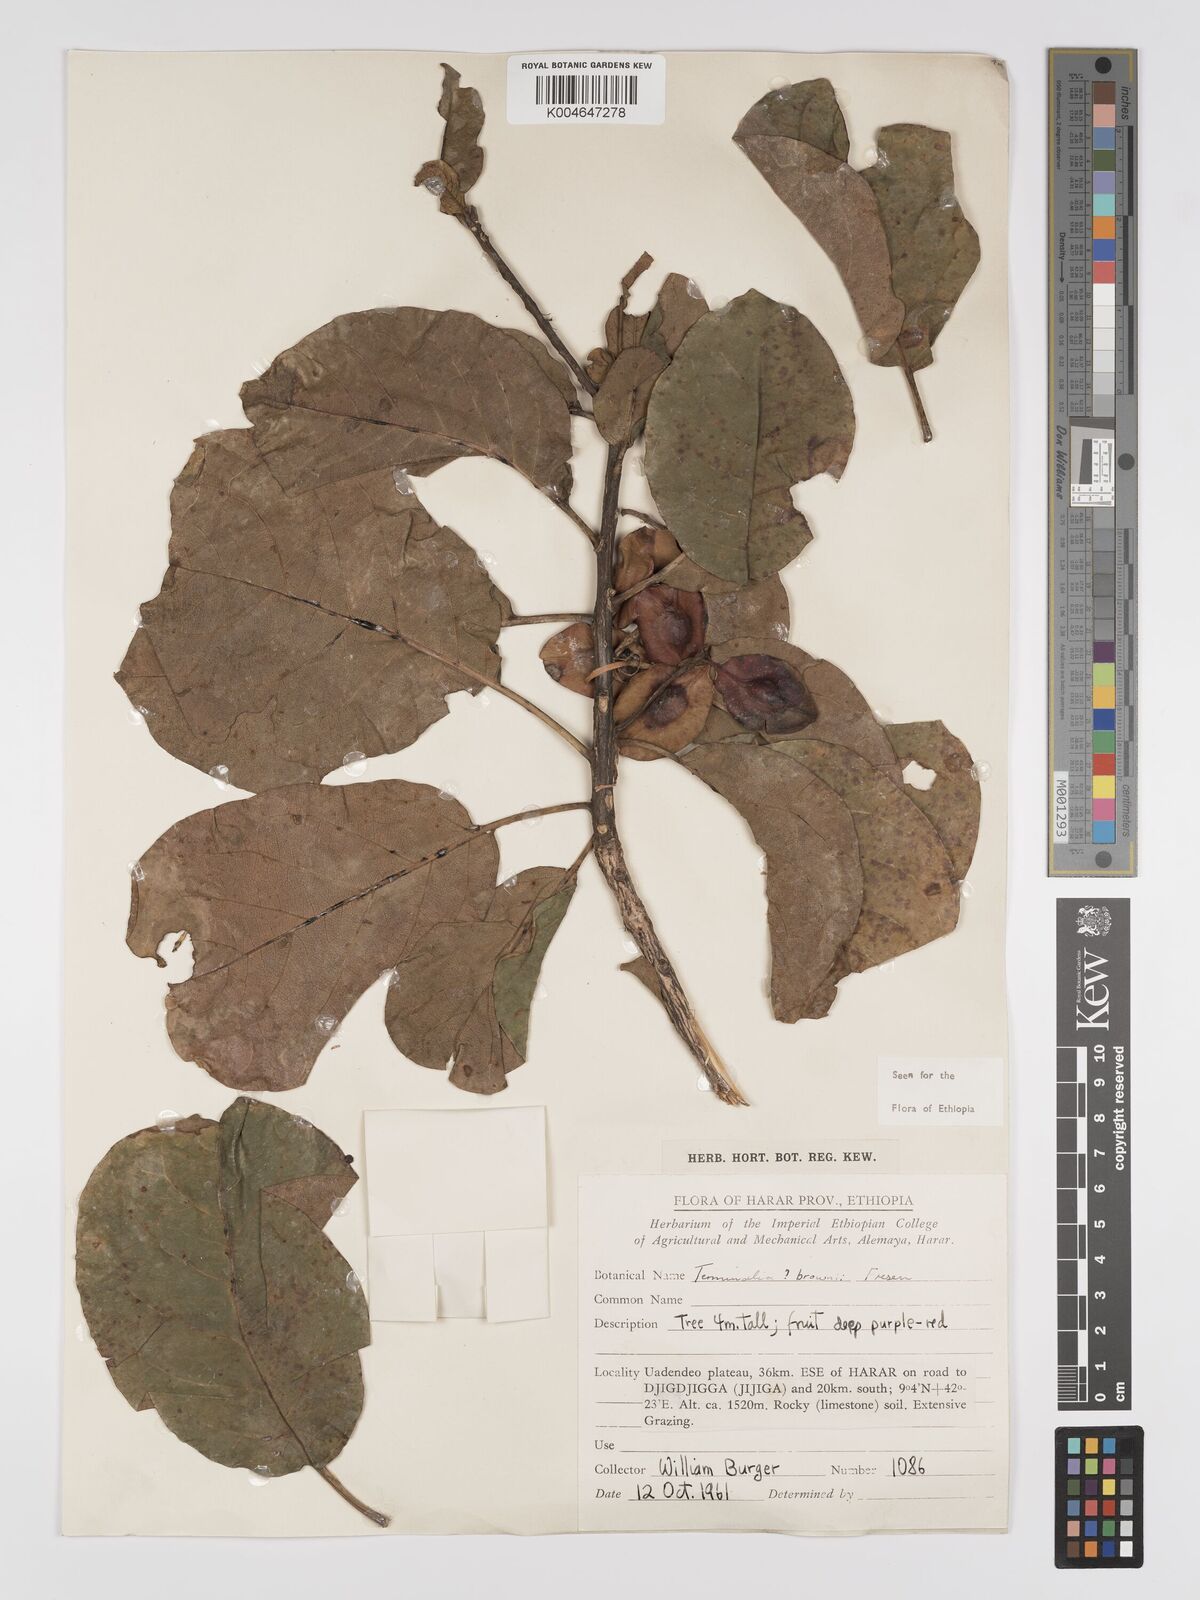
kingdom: Plantae
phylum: Tracheophyta
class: Magnoliopsida
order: Myrtales
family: Combretaceae
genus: Terminalia
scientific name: Terminalia brownii
